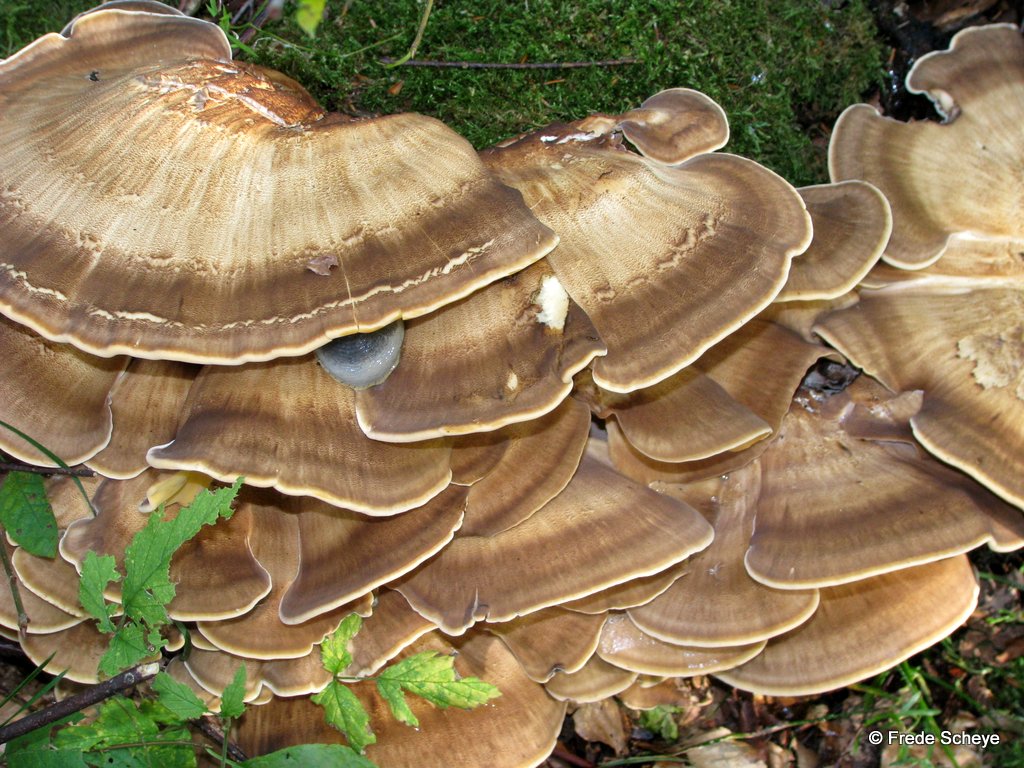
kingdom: Fungi
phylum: Basidiomycota
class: Agaricomycetes
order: Polyporales
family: Meripilaceae
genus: Meripilus
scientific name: Meripilus giganteus
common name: kæmpeporesvamp
